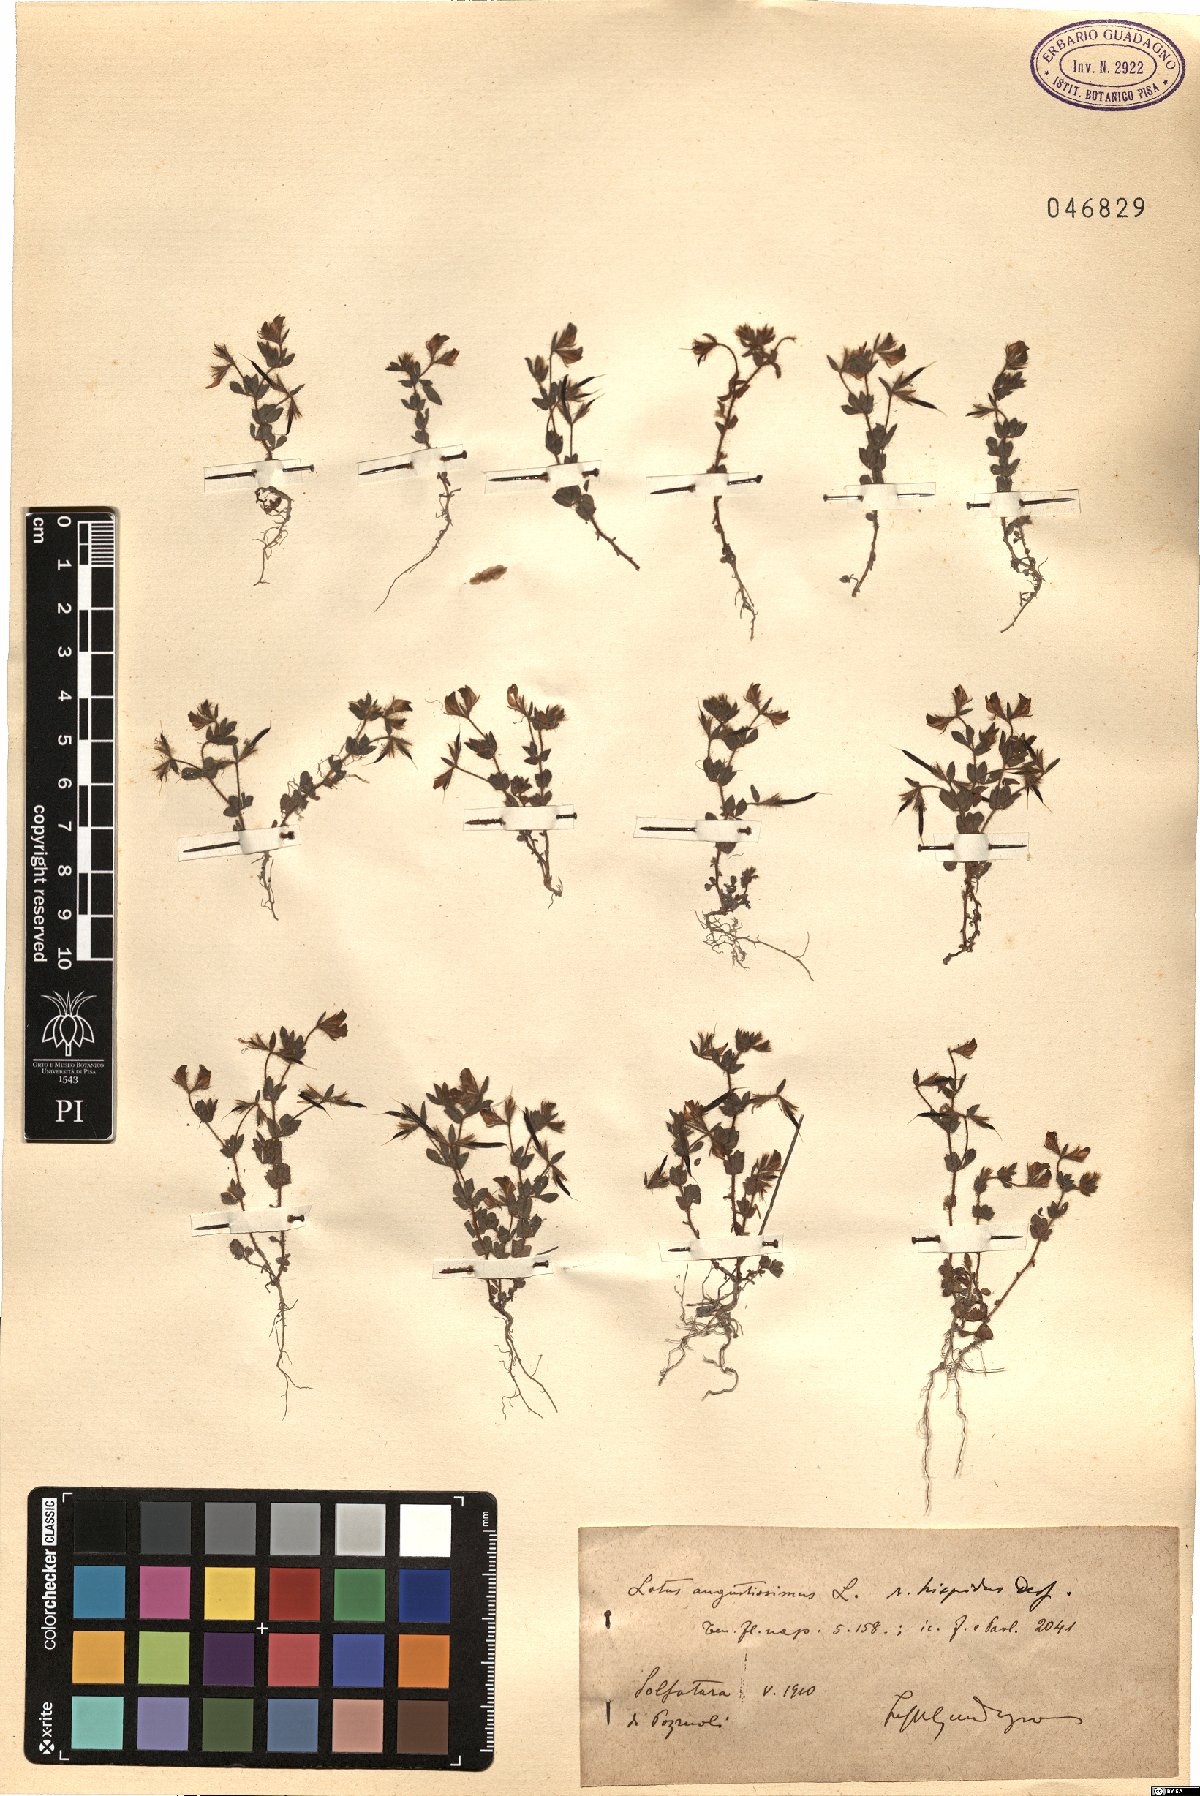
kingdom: Plantae
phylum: Tracheophyta
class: Magnoliopsida
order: Fabales
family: Fabaceae
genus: Lotus
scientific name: Lotus parviflorus
